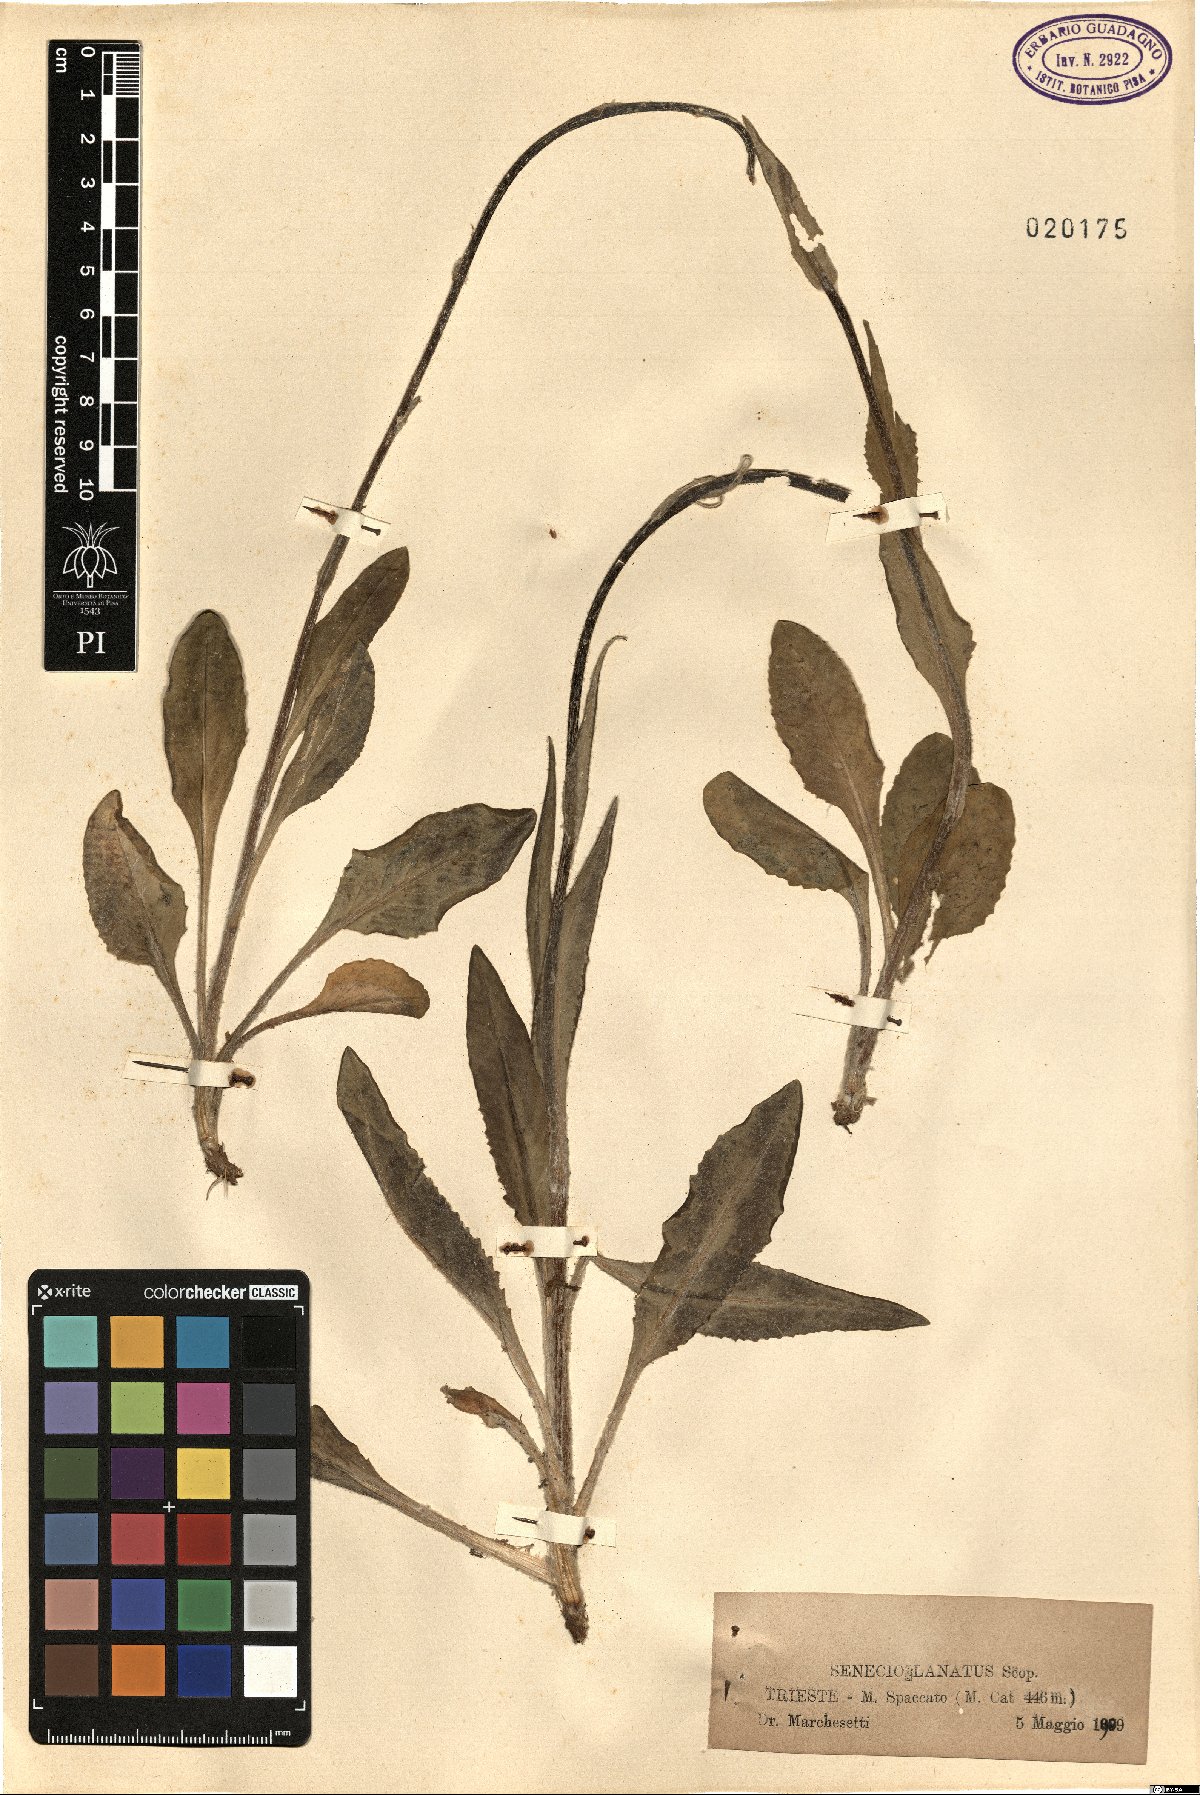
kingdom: Plantae
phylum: Tracheophyta
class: Magnoliopsida
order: Asterales
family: Asteraceae
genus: Senecio
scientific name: Senecio scopolii
